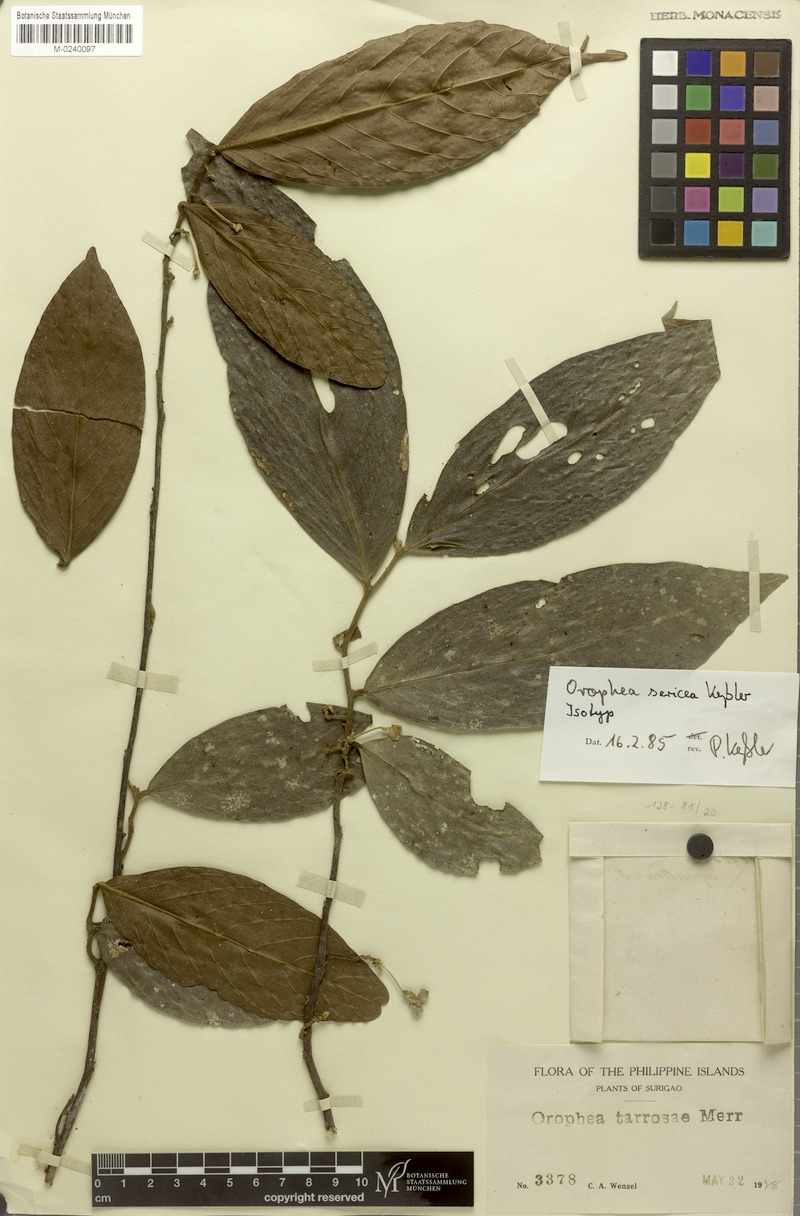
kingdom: Plantae
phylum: Tracheophyta
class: Magnoliopsida
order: Magnoliales
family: Annonaceae
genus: Orophea
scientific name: Orophea sericea
